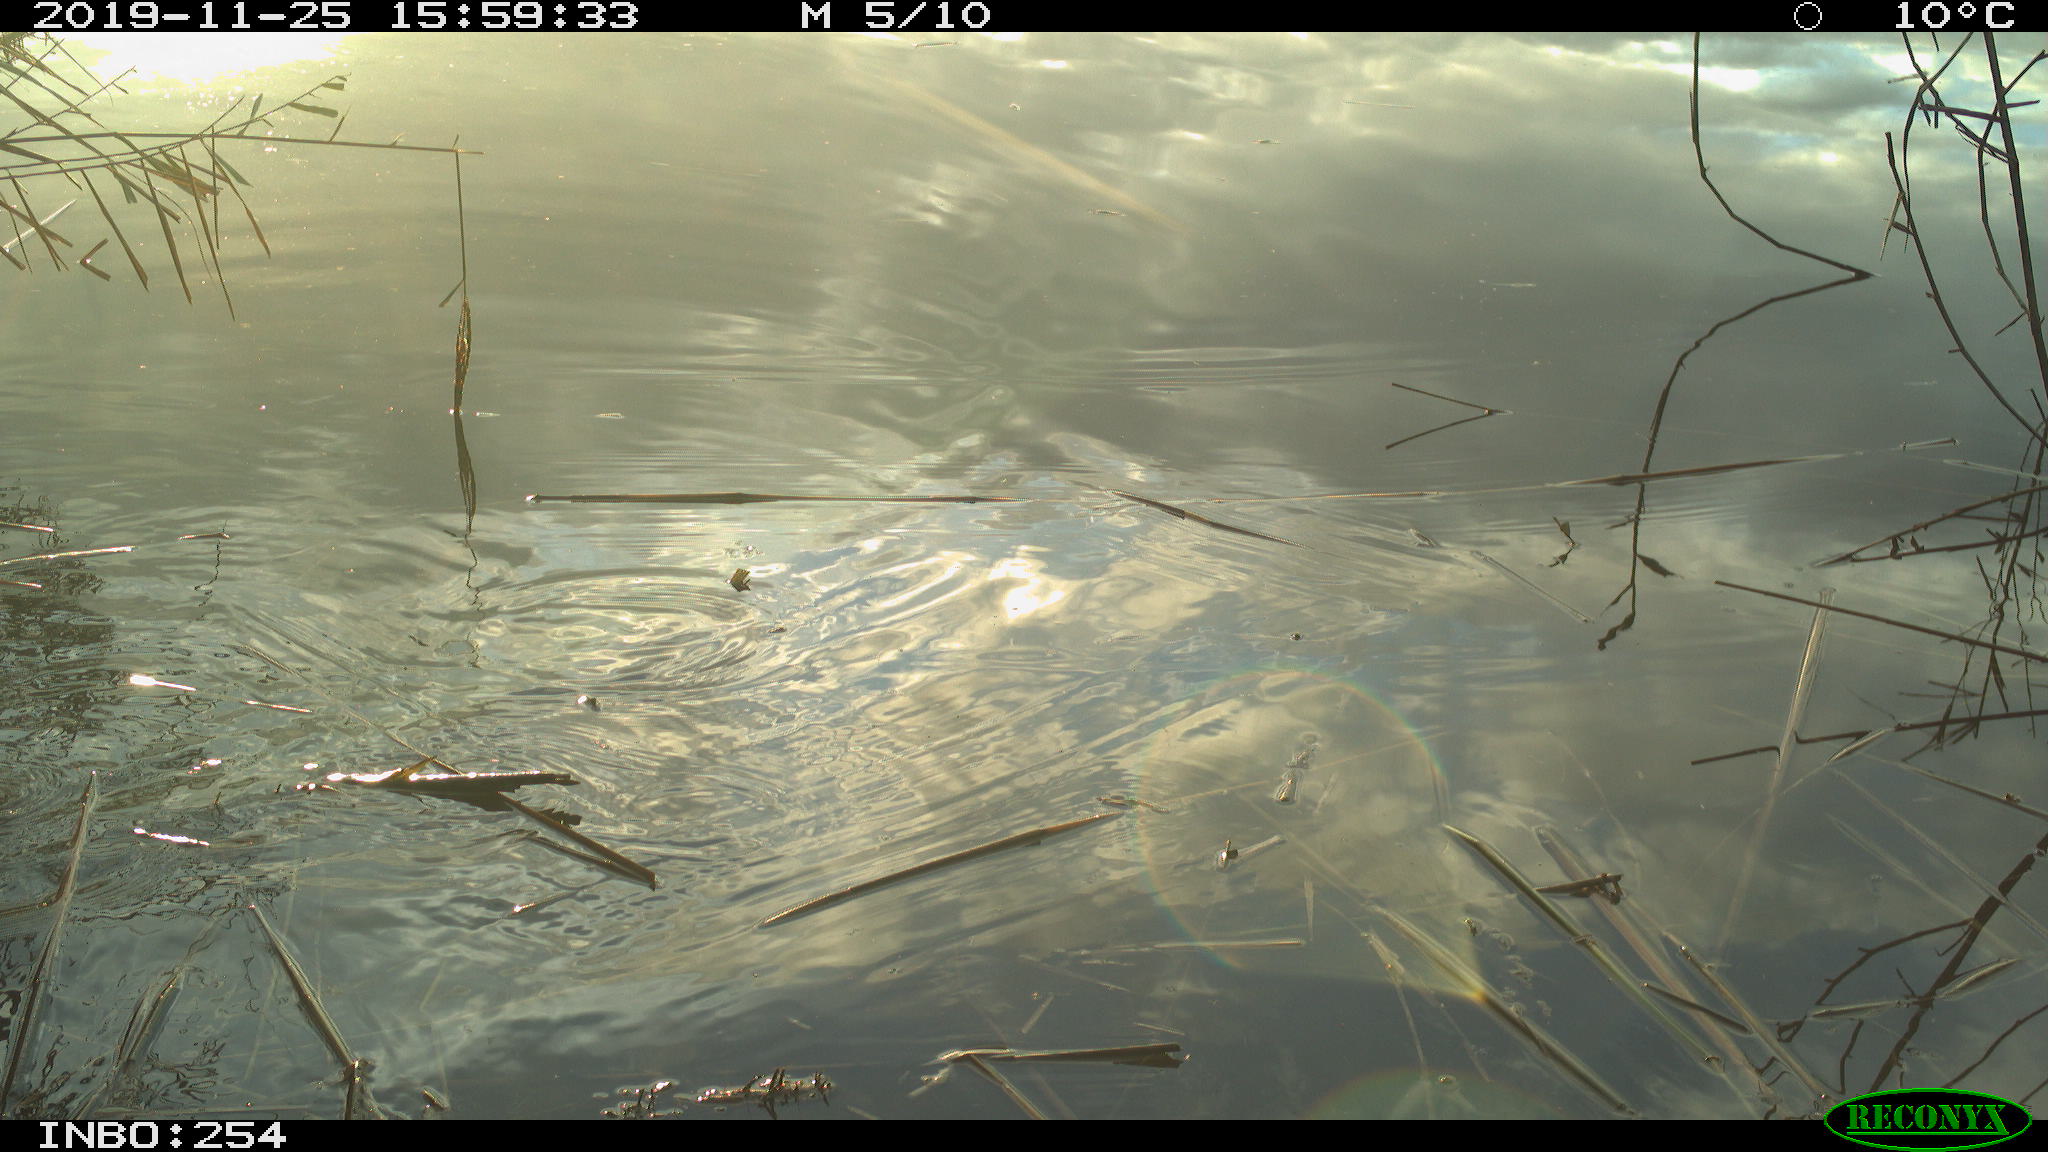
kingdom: Animalia
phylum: Chordata
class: Aves
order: Gruiformes
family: Rallidae
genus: Gallinula
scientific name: Gallinula chloropus
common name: Common moorhen
